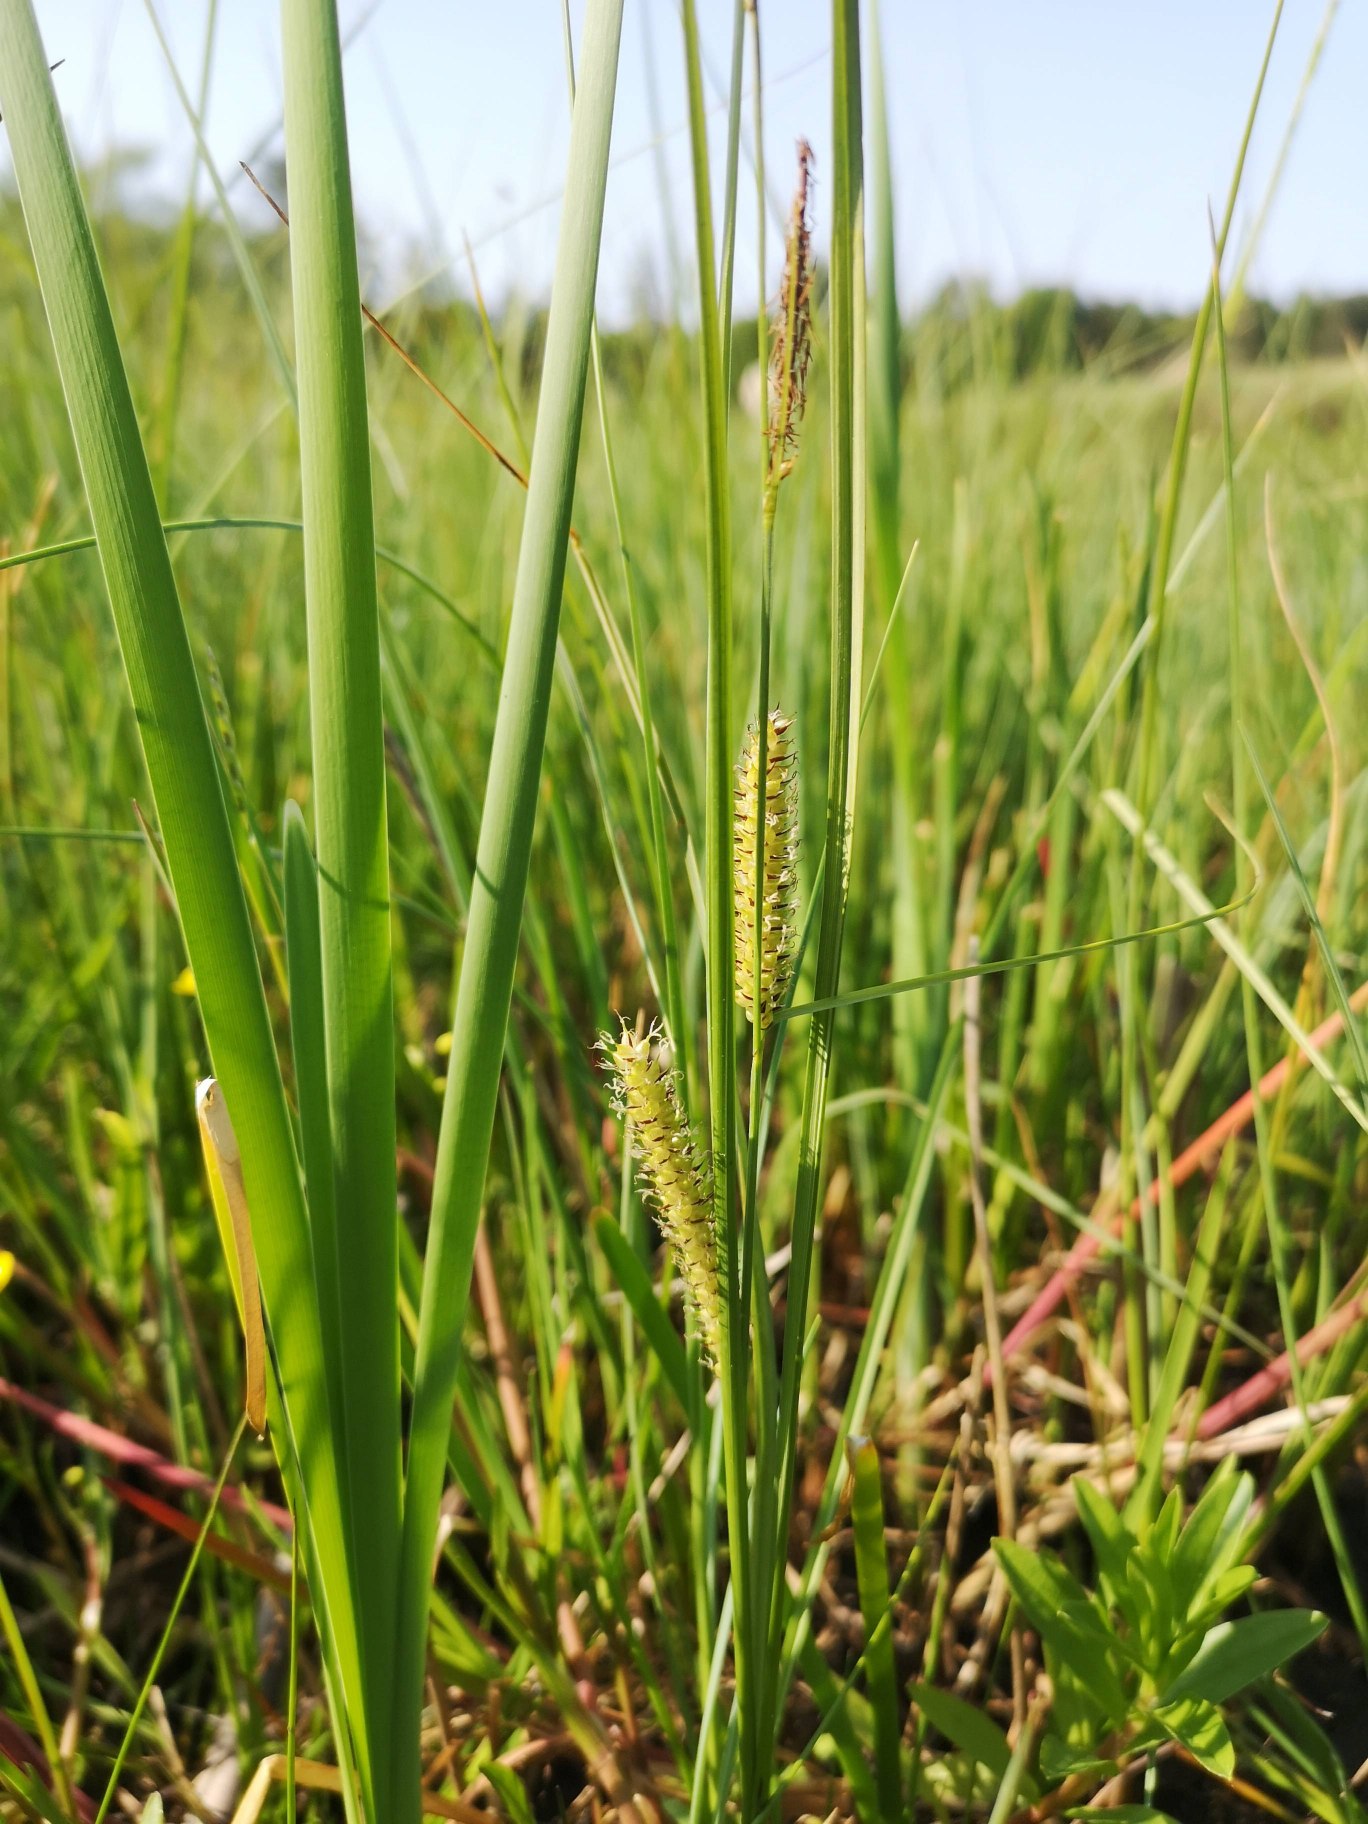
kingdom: Plantae
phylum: Tracheophyta
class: Liliopsida
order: Poales
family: Cyperaceae
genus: Carex
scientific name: Carex rostrata
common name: Næb-star
